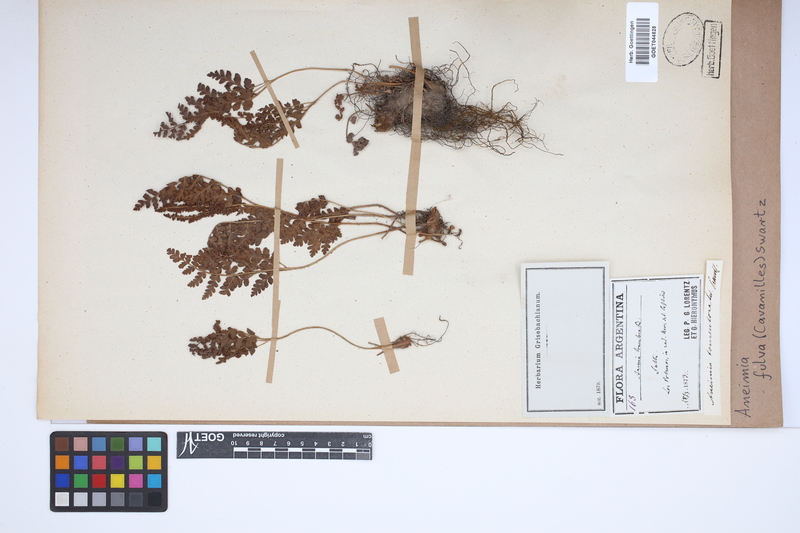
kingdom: Plantae
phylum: Tracheophyta
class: Polypodiopsida
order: Schizaeales
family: Anemiaceae
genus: Anemia
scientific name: Anemia ferruginea
